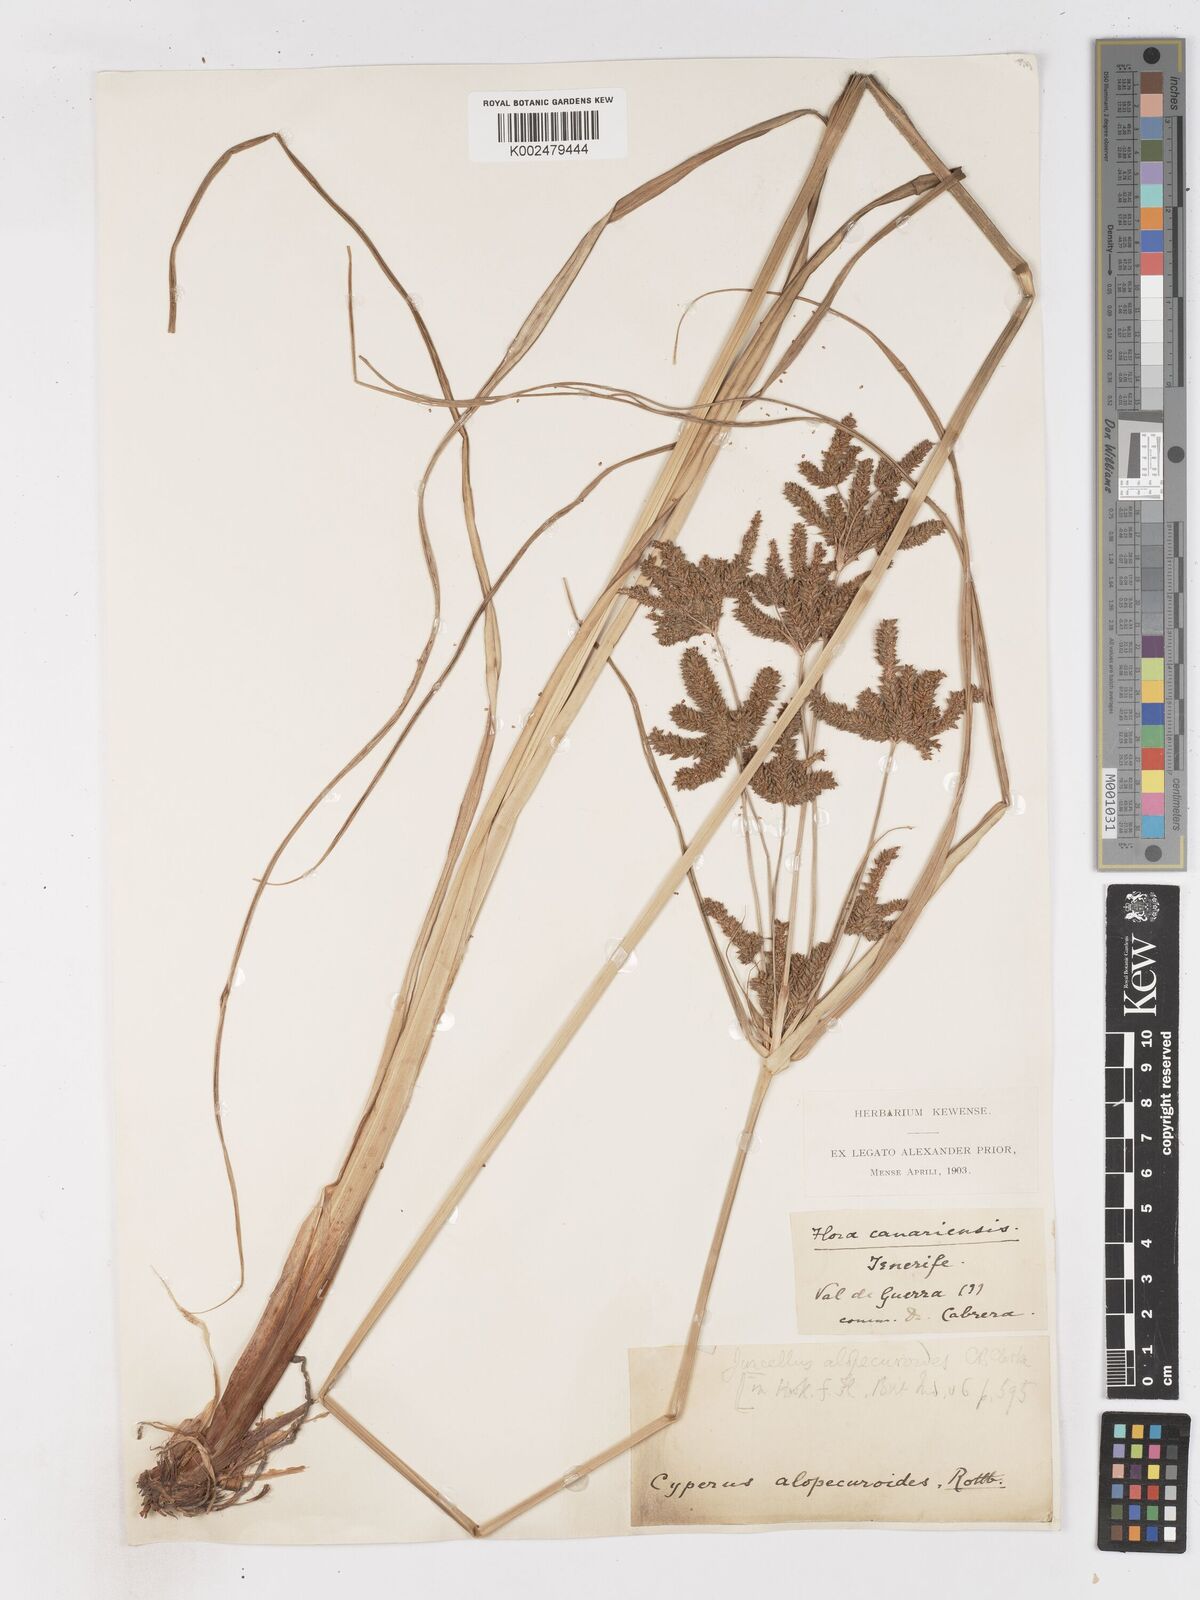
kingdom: Plantae
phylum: Tracheophyta
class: Liliopsida
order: Poales
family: Cyperaceae
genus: Cyperus
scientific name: Cyperus alopecuroides
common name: Foxtail flatsedge
